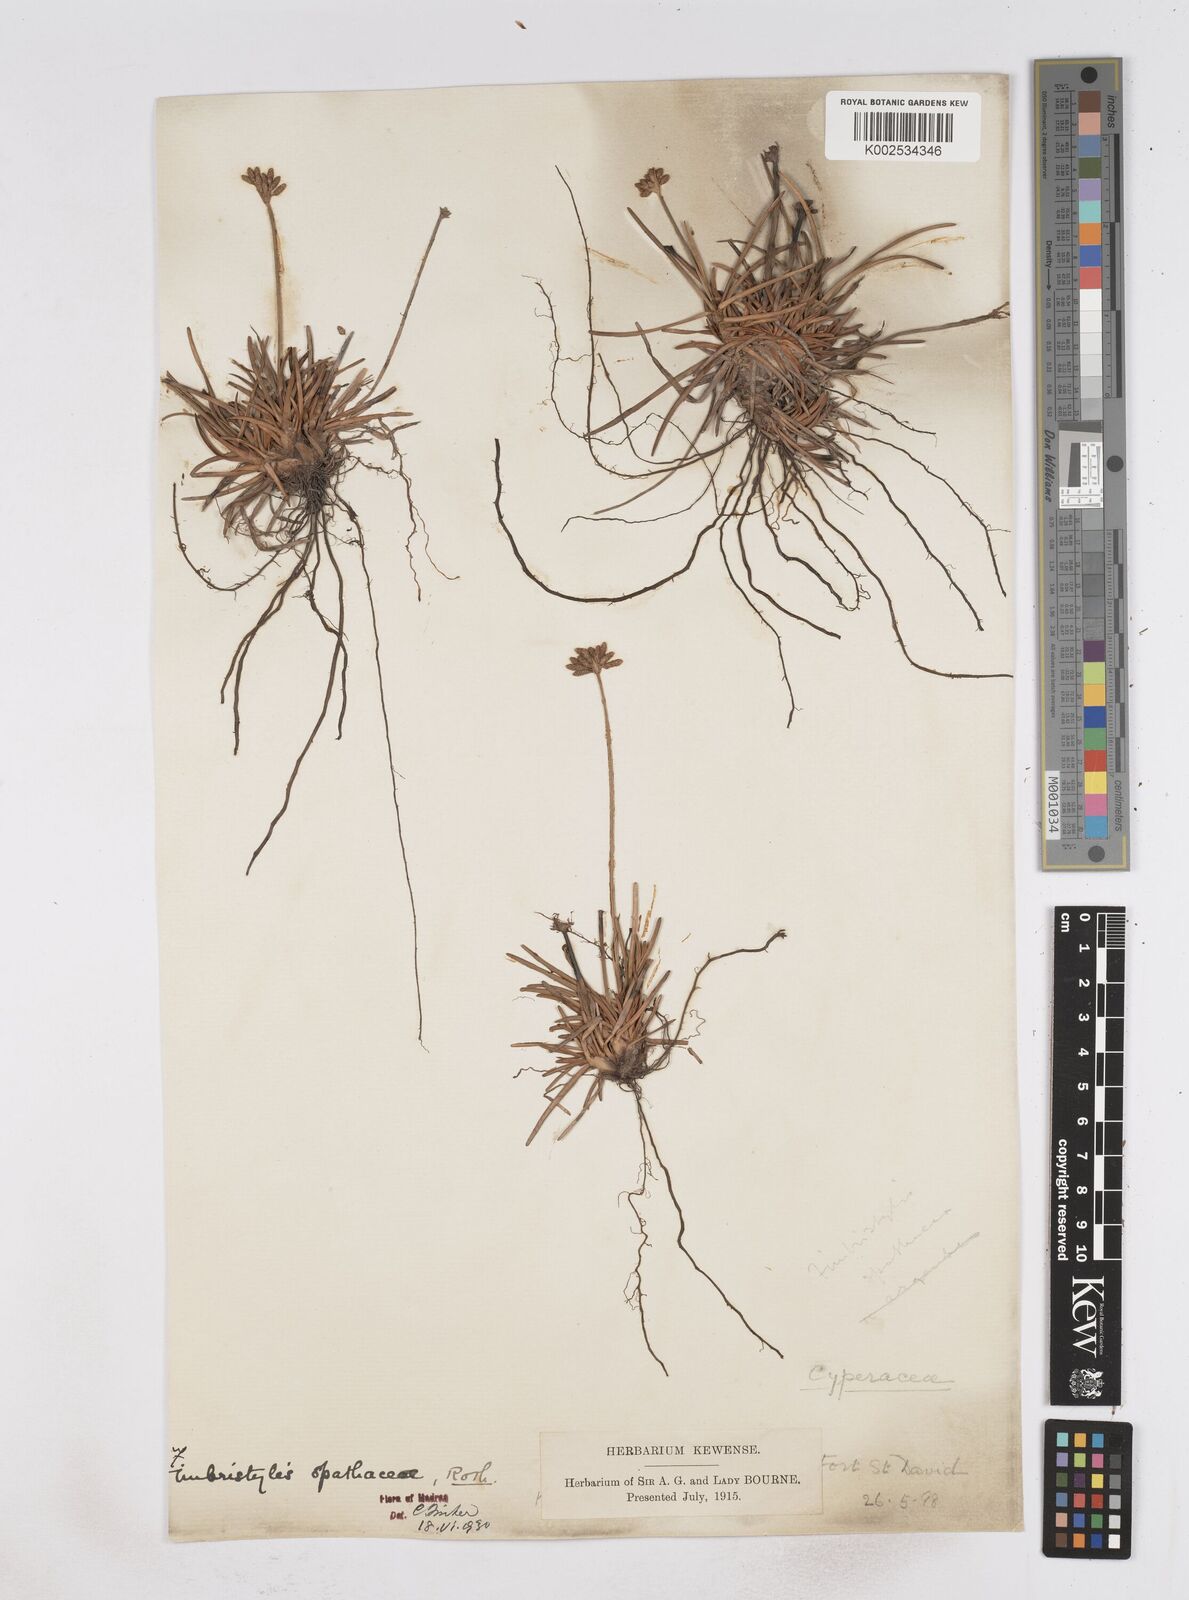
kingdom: Plantae
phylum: Tracheophyta
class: Liliopsida
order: Poales
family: Cyperaceae
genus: Fimbristylis
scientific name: Fimbristylis cymosa
